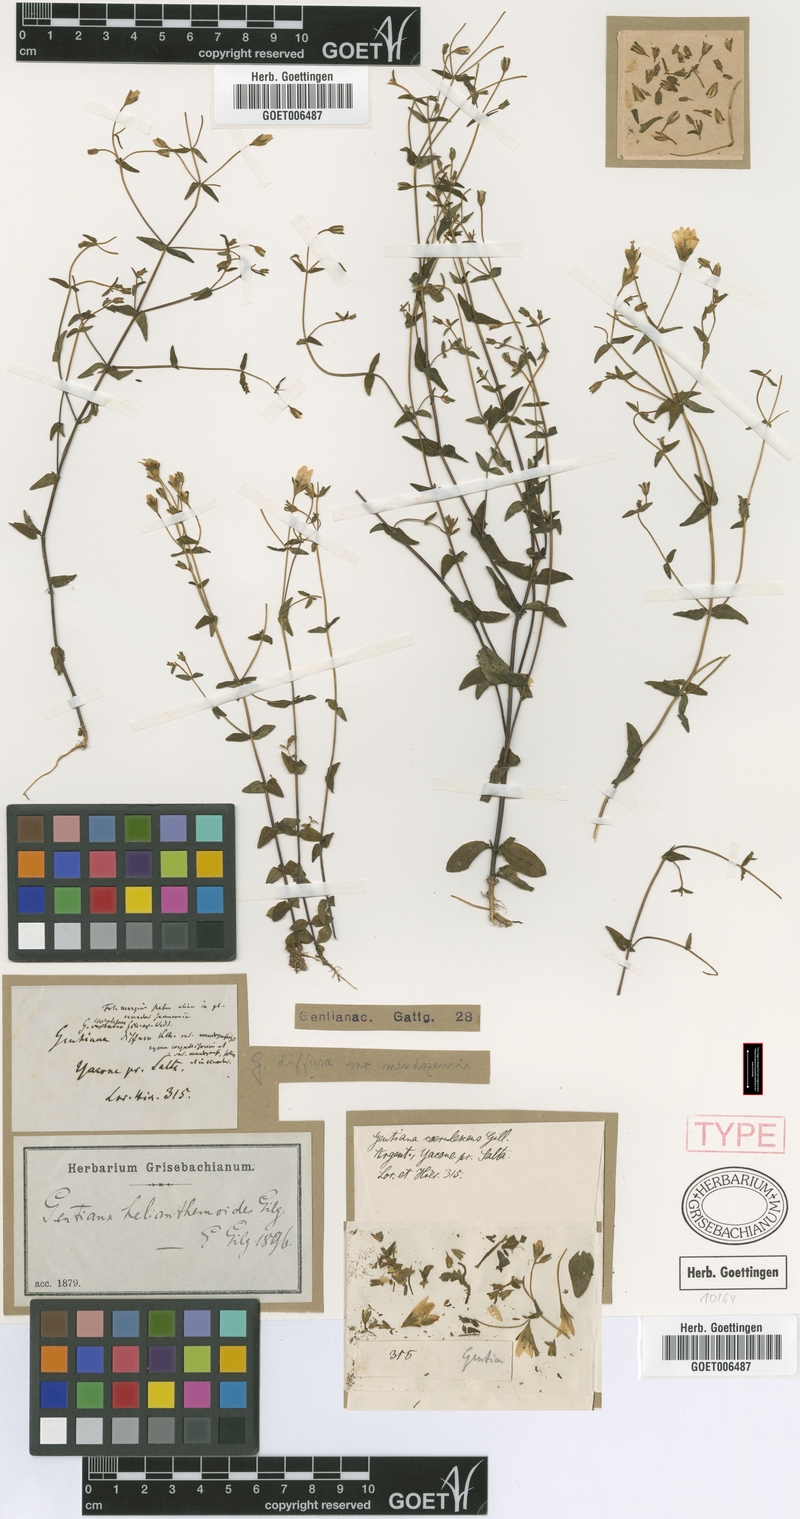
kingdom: Plantae
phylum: Tracheophyta
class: Magnoliopsida
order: Gentianales
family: Gentianaceae
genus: Gentianella
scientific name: Gentianella helianthemoides
